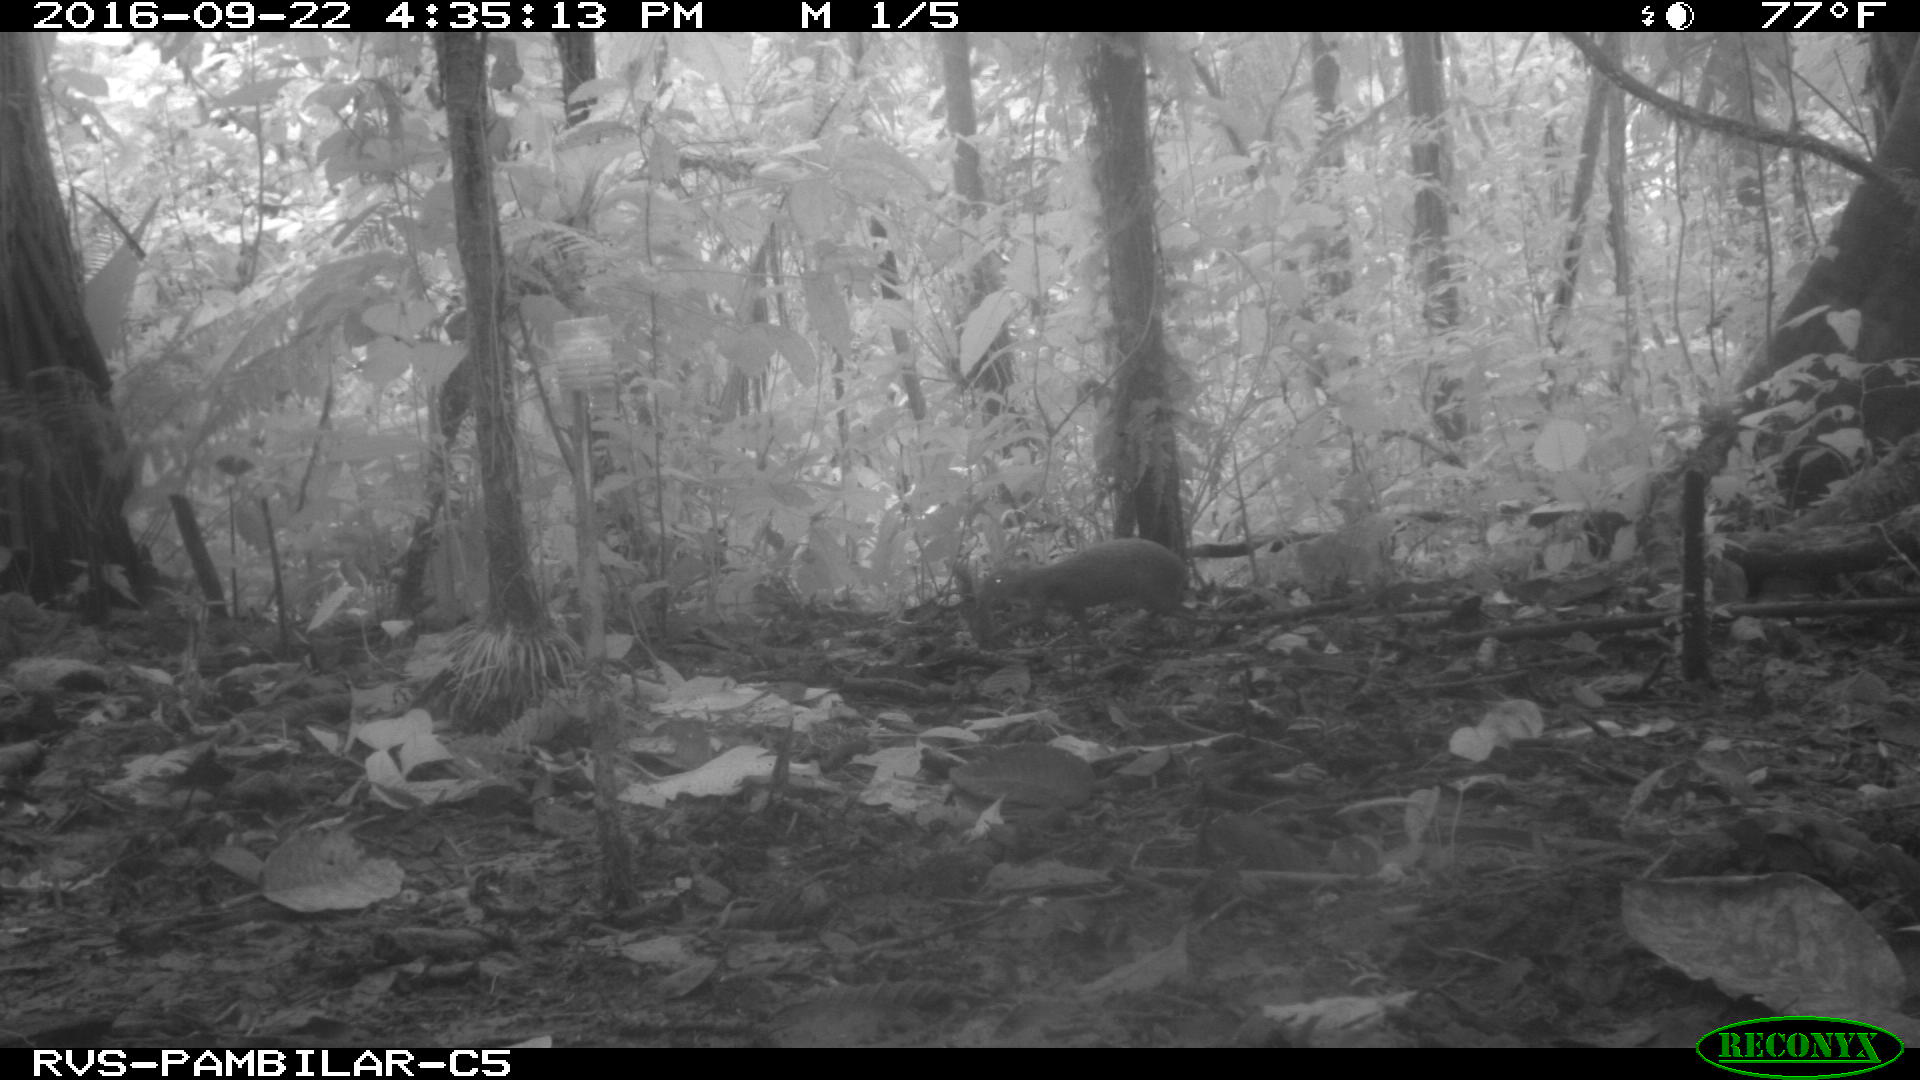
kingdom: Animalia
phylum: Chordata
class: Mammalia
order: Rodentia
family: Dasyproctidae
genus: Dasyprocta
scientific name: Dasyprocta punctata
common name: Central american agouti
